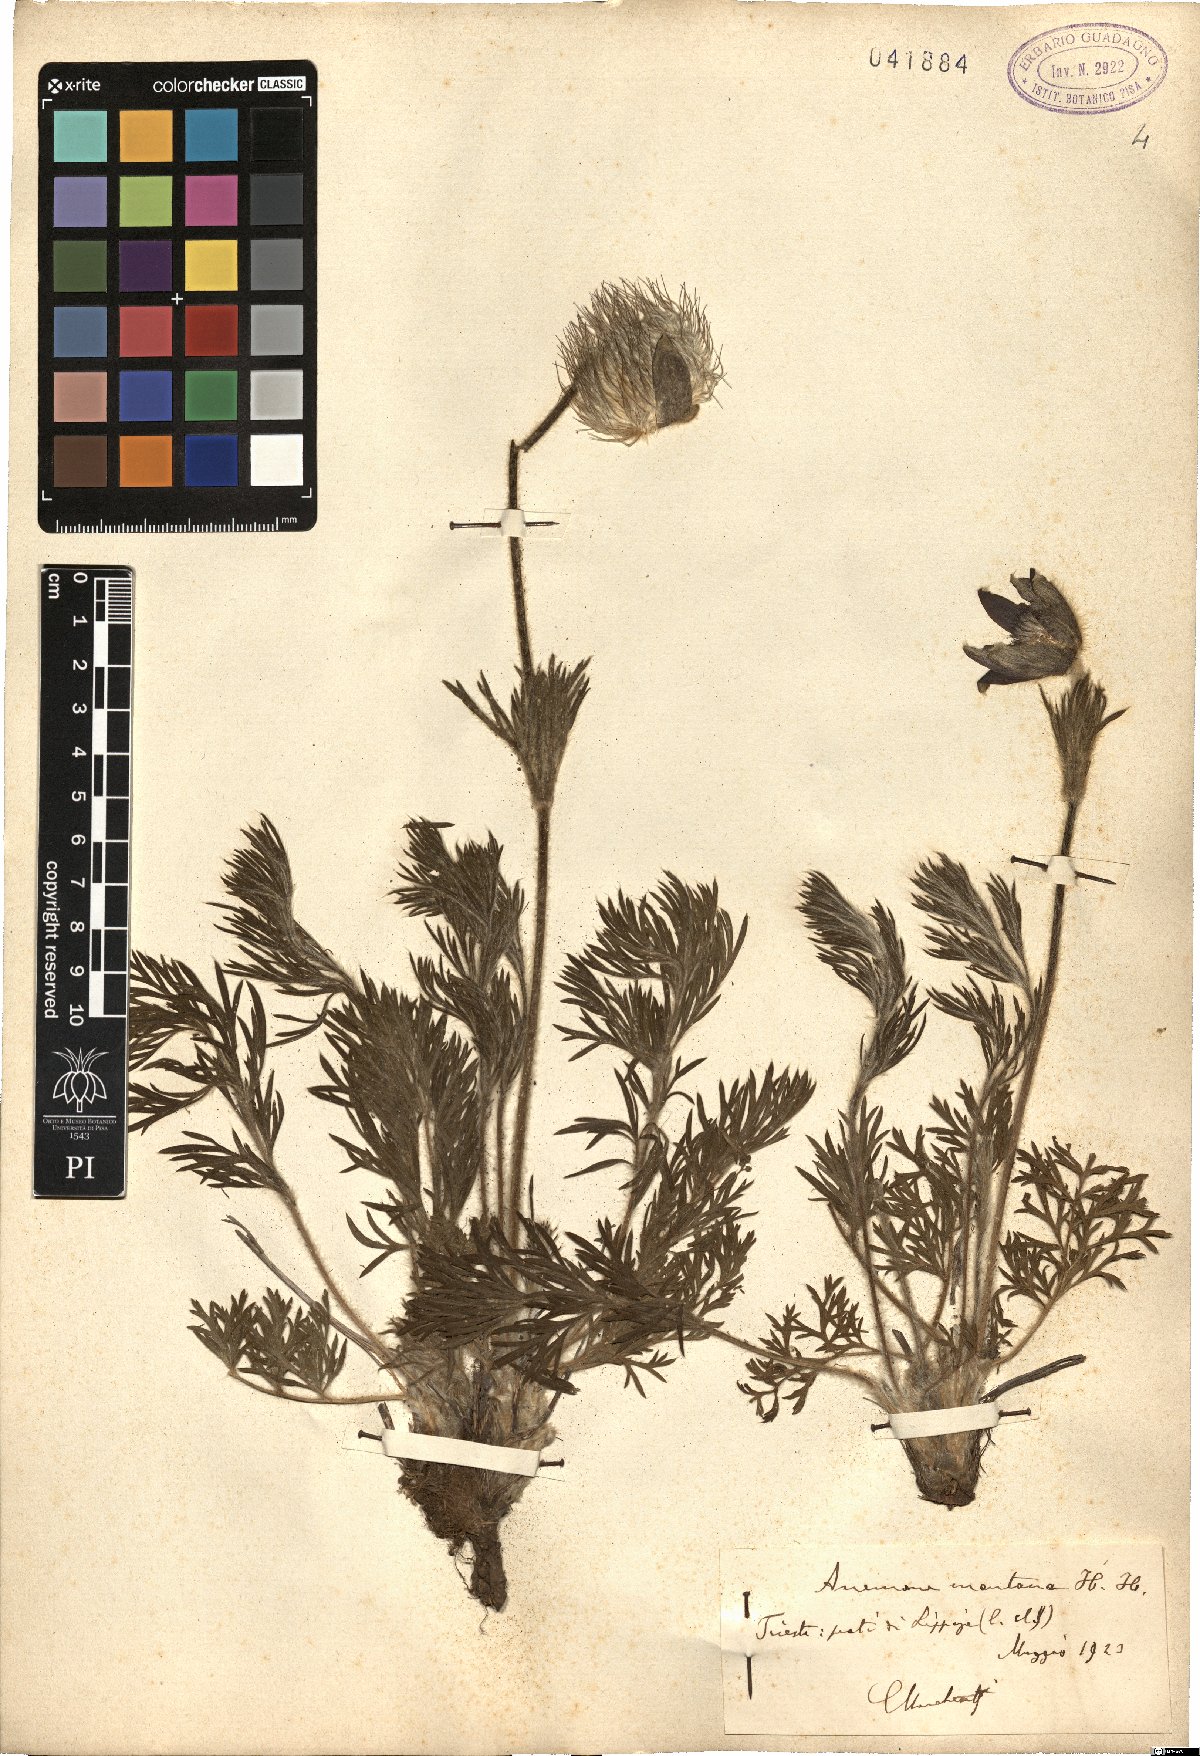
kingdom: Plantae
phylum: Tracheophyta
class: Magnoliopsida
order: Ranunculales
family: Ranunculaceae
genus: Pulsatilla
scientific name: Pulsatilla montana
